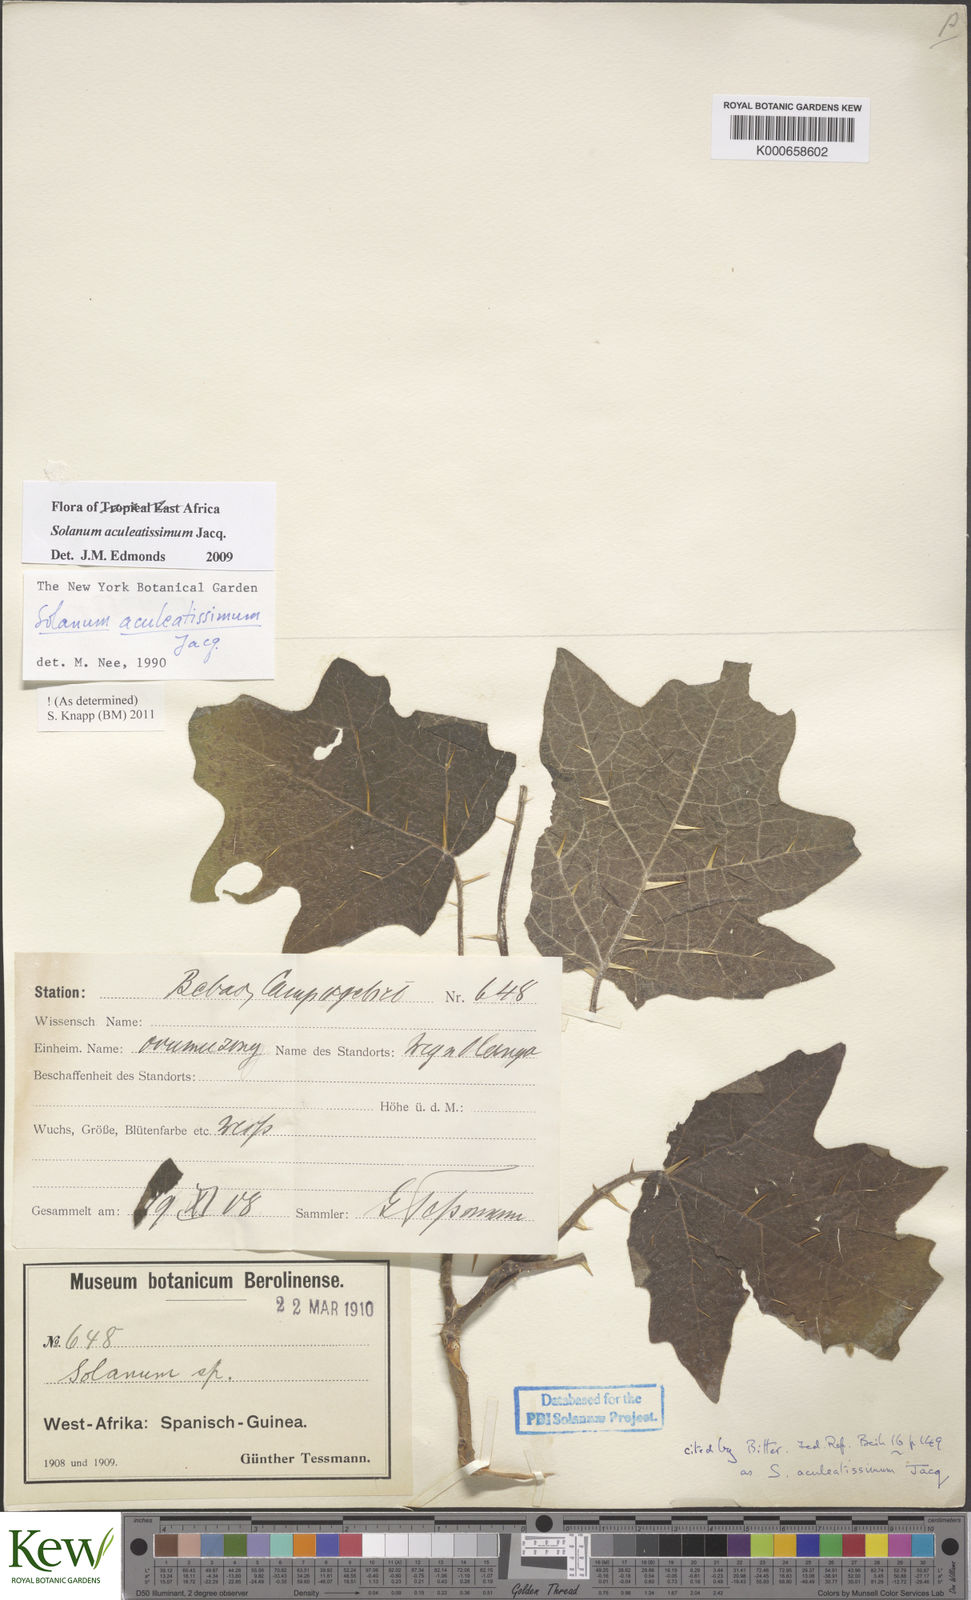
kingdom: Plantae
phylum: Tracheophyta
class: Magnoliopsida
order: Solanales
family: Solanaceae
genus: Solanum
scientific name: Solanum aculeatissimum
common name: Dutch eggplant
